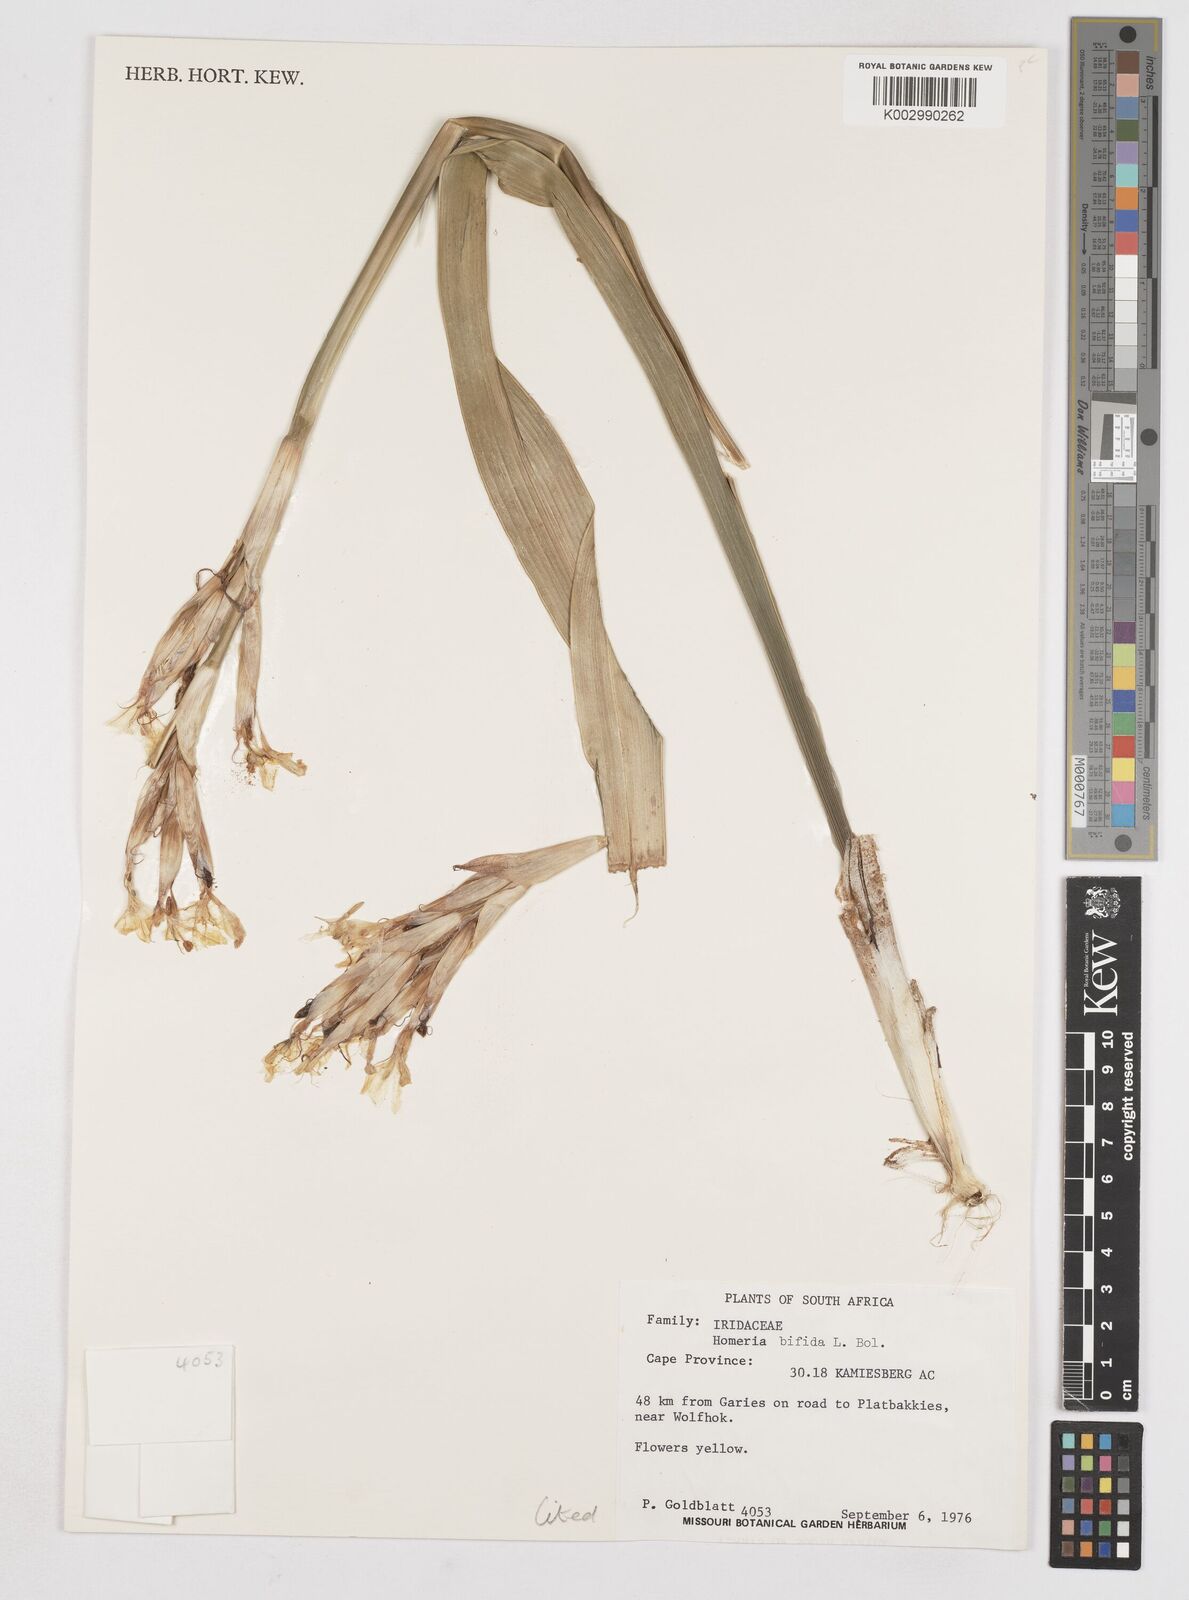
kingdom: Plantae
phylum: Tracheophyta
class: Liliopsida
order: Asparagales
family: Iridaceae
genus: Moraea
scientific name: Moraea bifida
